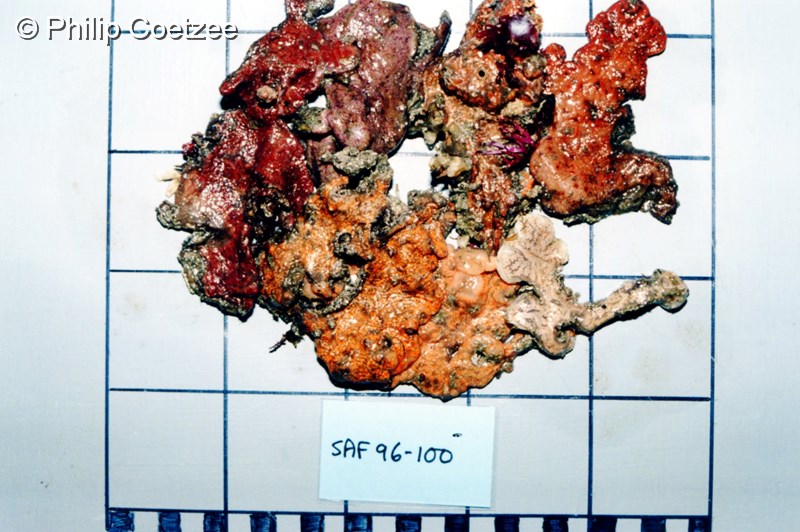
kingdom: Animalia
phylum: Chordata
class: Ascidiacea
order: Stolidobranchia
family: Styelidae
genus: Botryllus
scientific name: Botryllus
